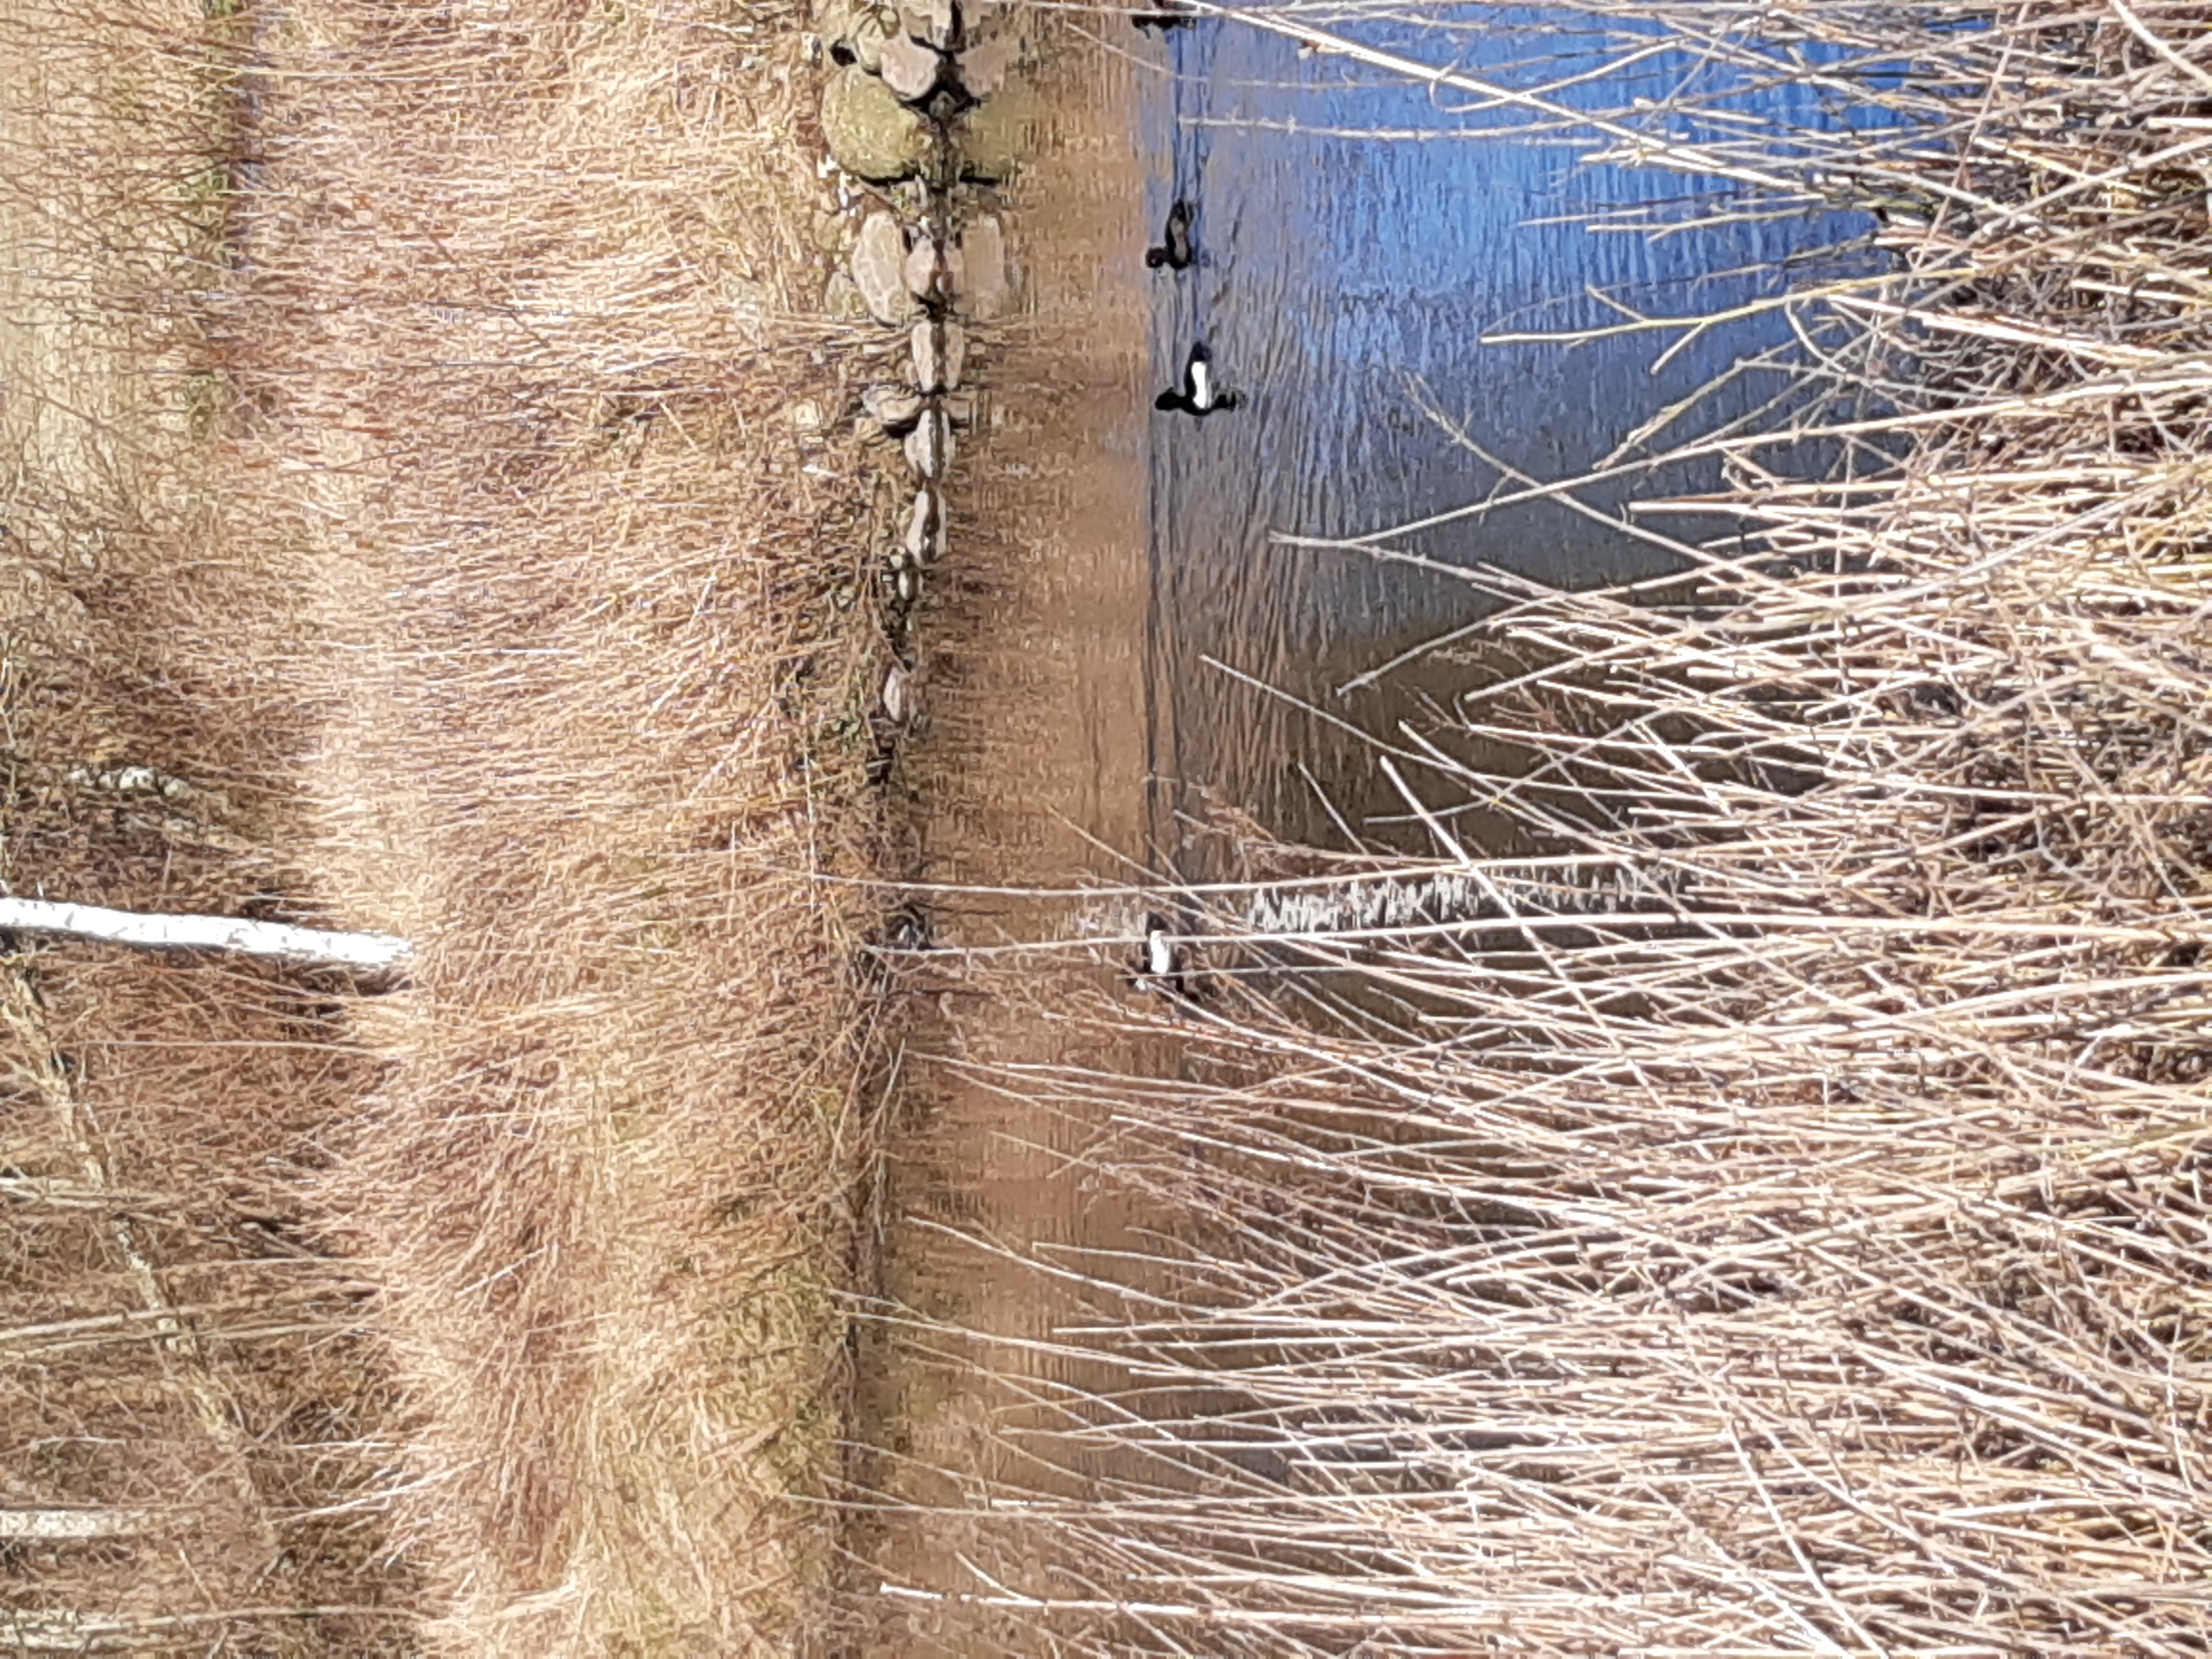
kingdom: Animalia
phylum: Chordata
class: Aves
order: Anseriformes
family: Anatidae
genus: Aythya
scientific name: Aythya fuligula
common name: Troldand
